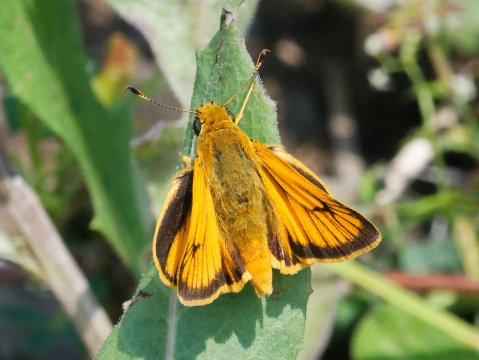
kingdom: Animalia
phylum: Arthropoda
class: Insecta
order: Lepidoptera
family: Hesperiidae
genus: Atrytone
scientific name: Atrytone delaware
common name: Delaware Skipper
